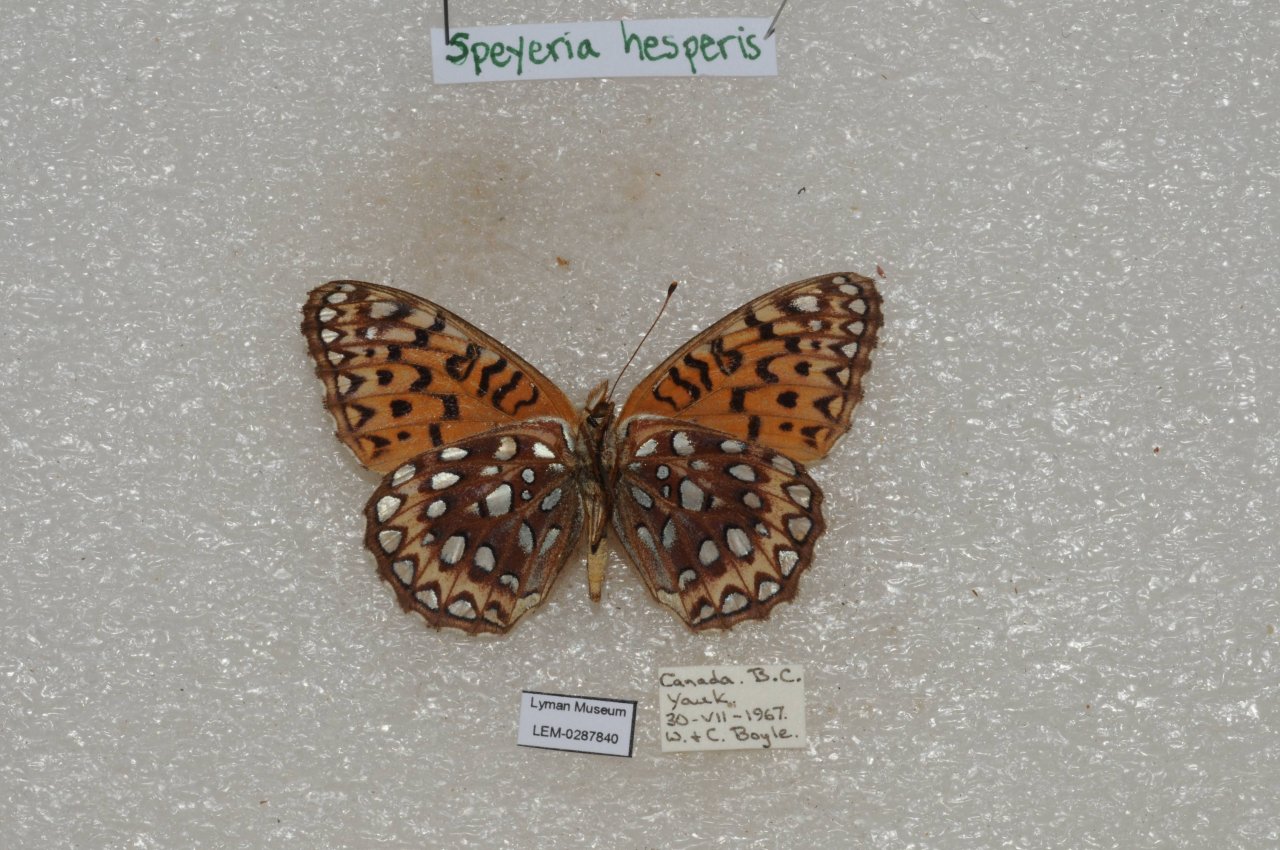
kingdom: Animalia
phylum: Arthropoda
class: Insecta
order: Lepidoptera
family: Nymphalidae
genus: Speyeria
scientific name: Speyeria atlantis
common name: Northwestern Fritillary
